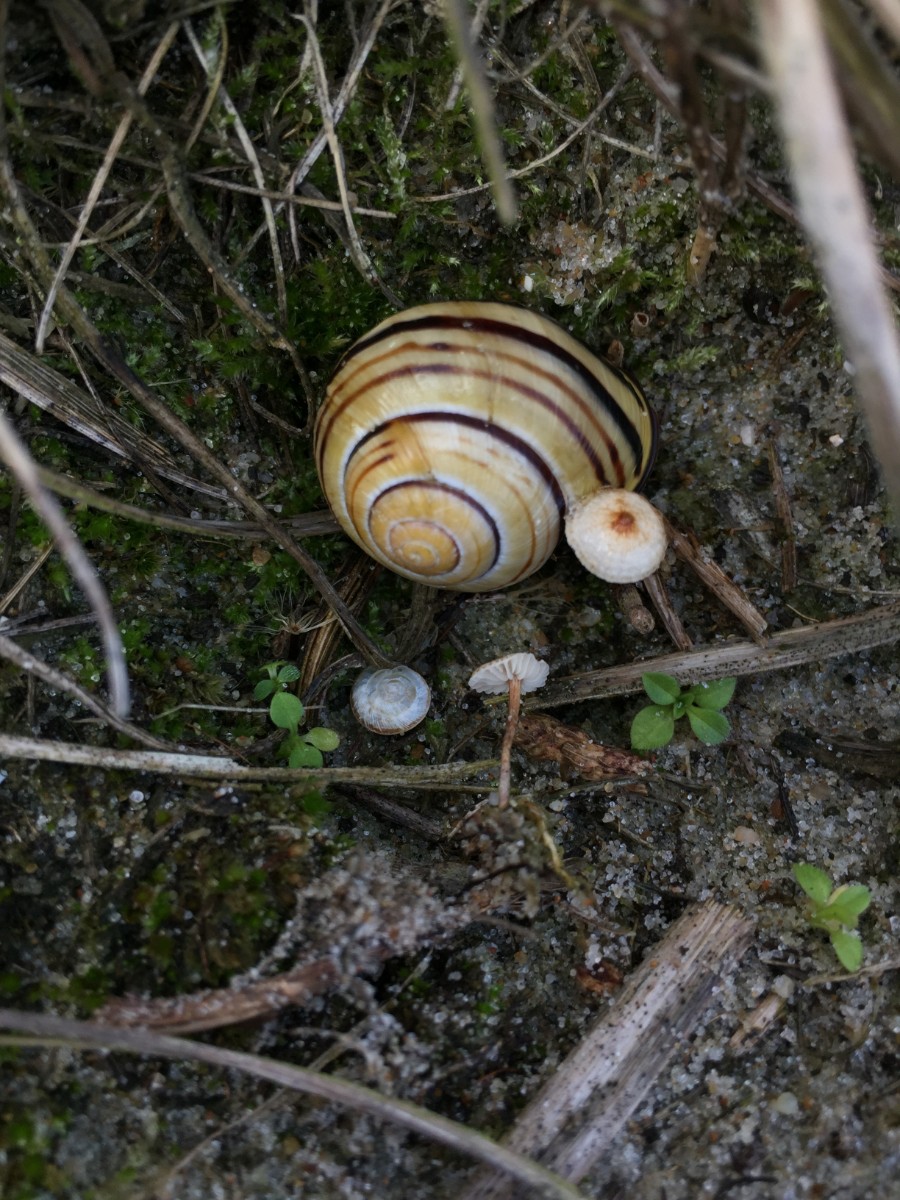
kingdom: Fungi
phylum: Basidiomycota
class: Agaricomycetes
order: Agaricales
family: Marasmiaceae
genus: Crinipellis
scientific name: Crinipellis scabella
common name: børstefod
